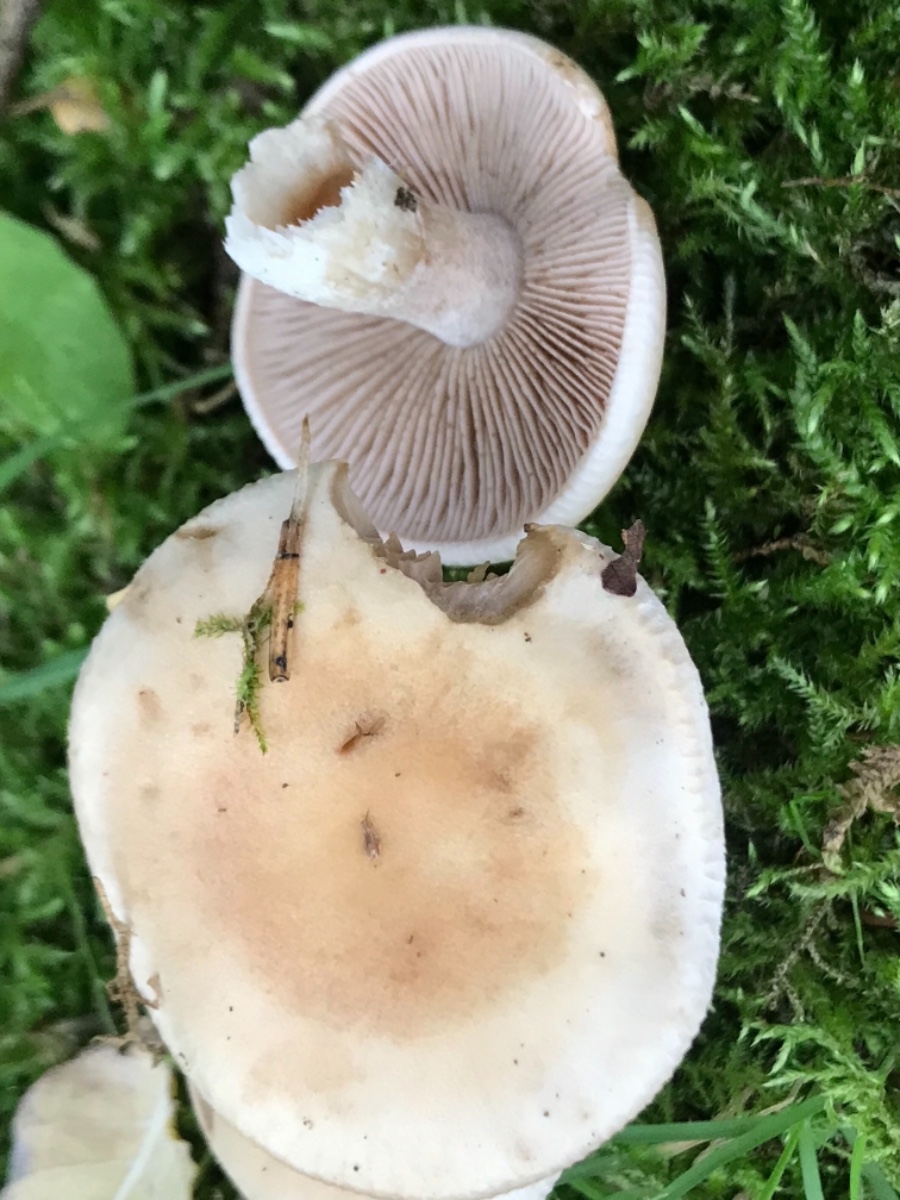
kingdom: Fungi
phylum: Basidiomycota
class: Agaricomycetes
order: Agaricales
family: Hymenogastraceae
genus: Hebeloma
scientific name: Hebeloma
